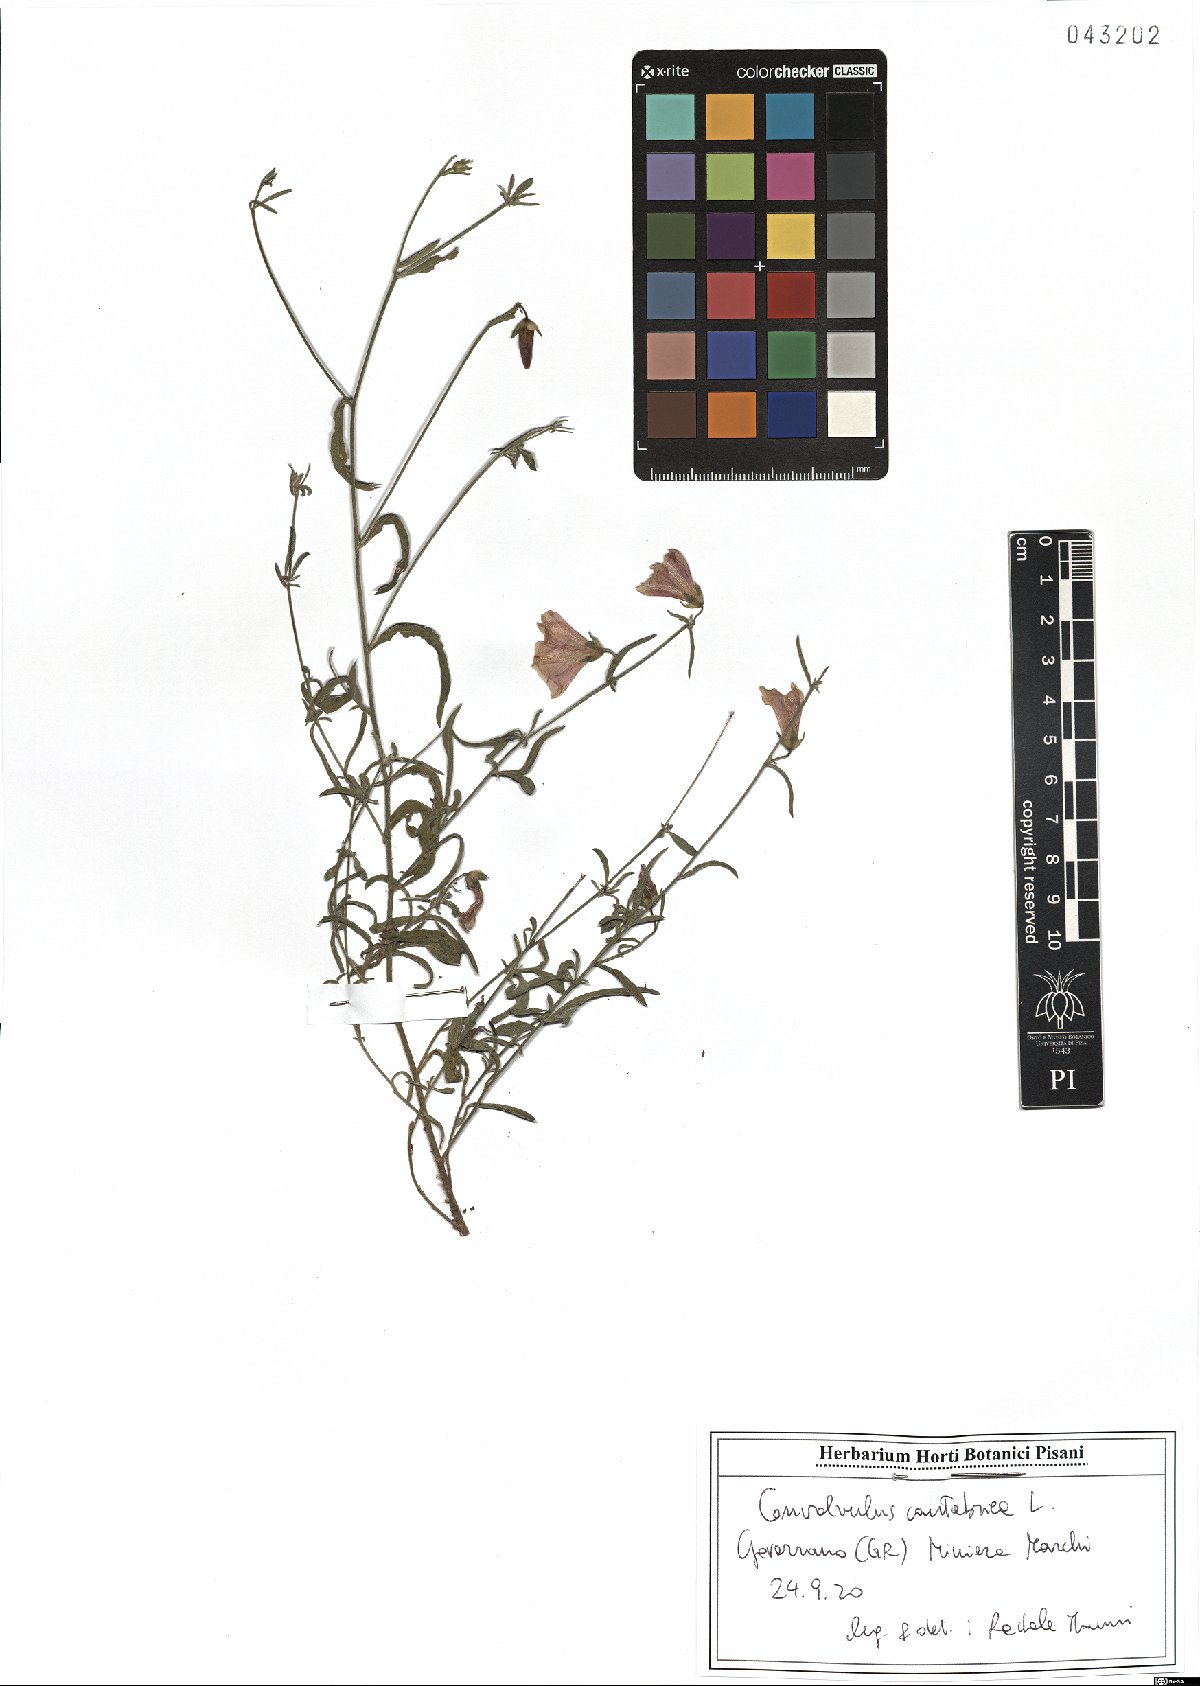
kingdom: Plantae
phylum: Tracheophyta
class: Magnoliopsida
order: Solanales
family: Convolvulaceae
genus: Convolvulus
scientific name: Convolvulus cantabrica
